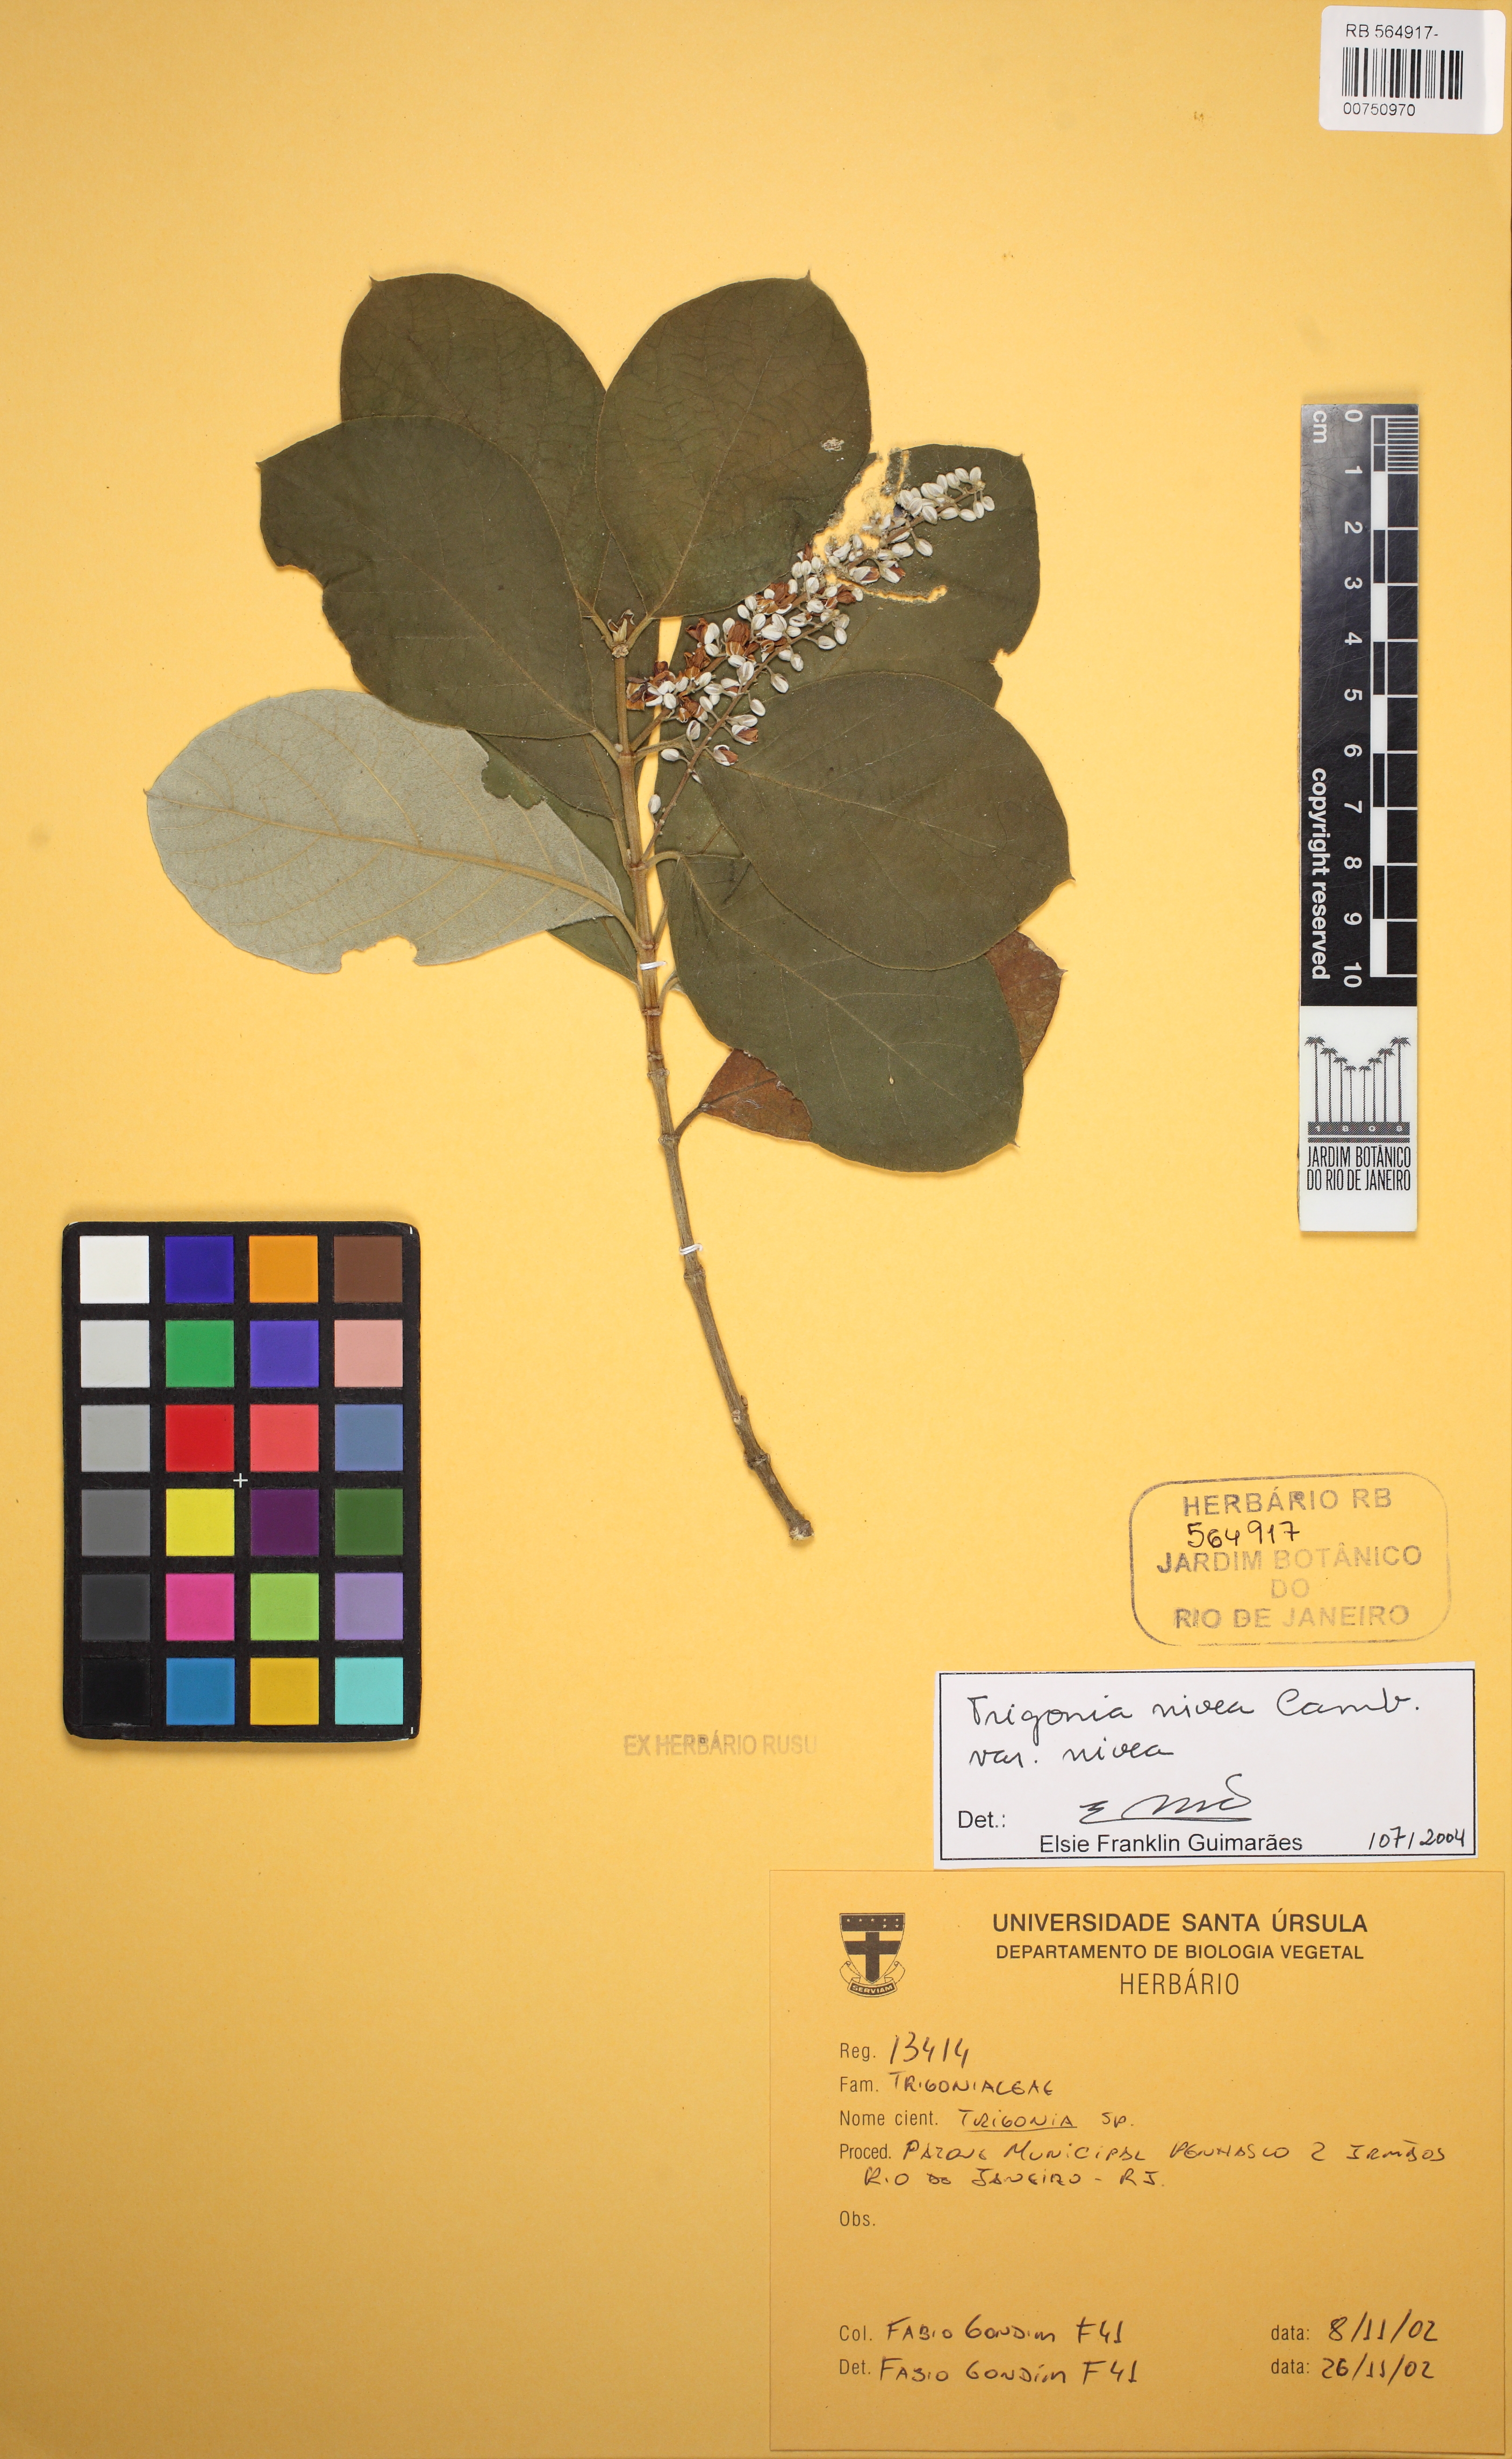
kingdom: Plantae
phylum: Tracheophyta
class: Magnoliopsida
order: Malpighiales
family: Trigoniaceae
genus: Trigonia
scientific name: Trigonia nivea
